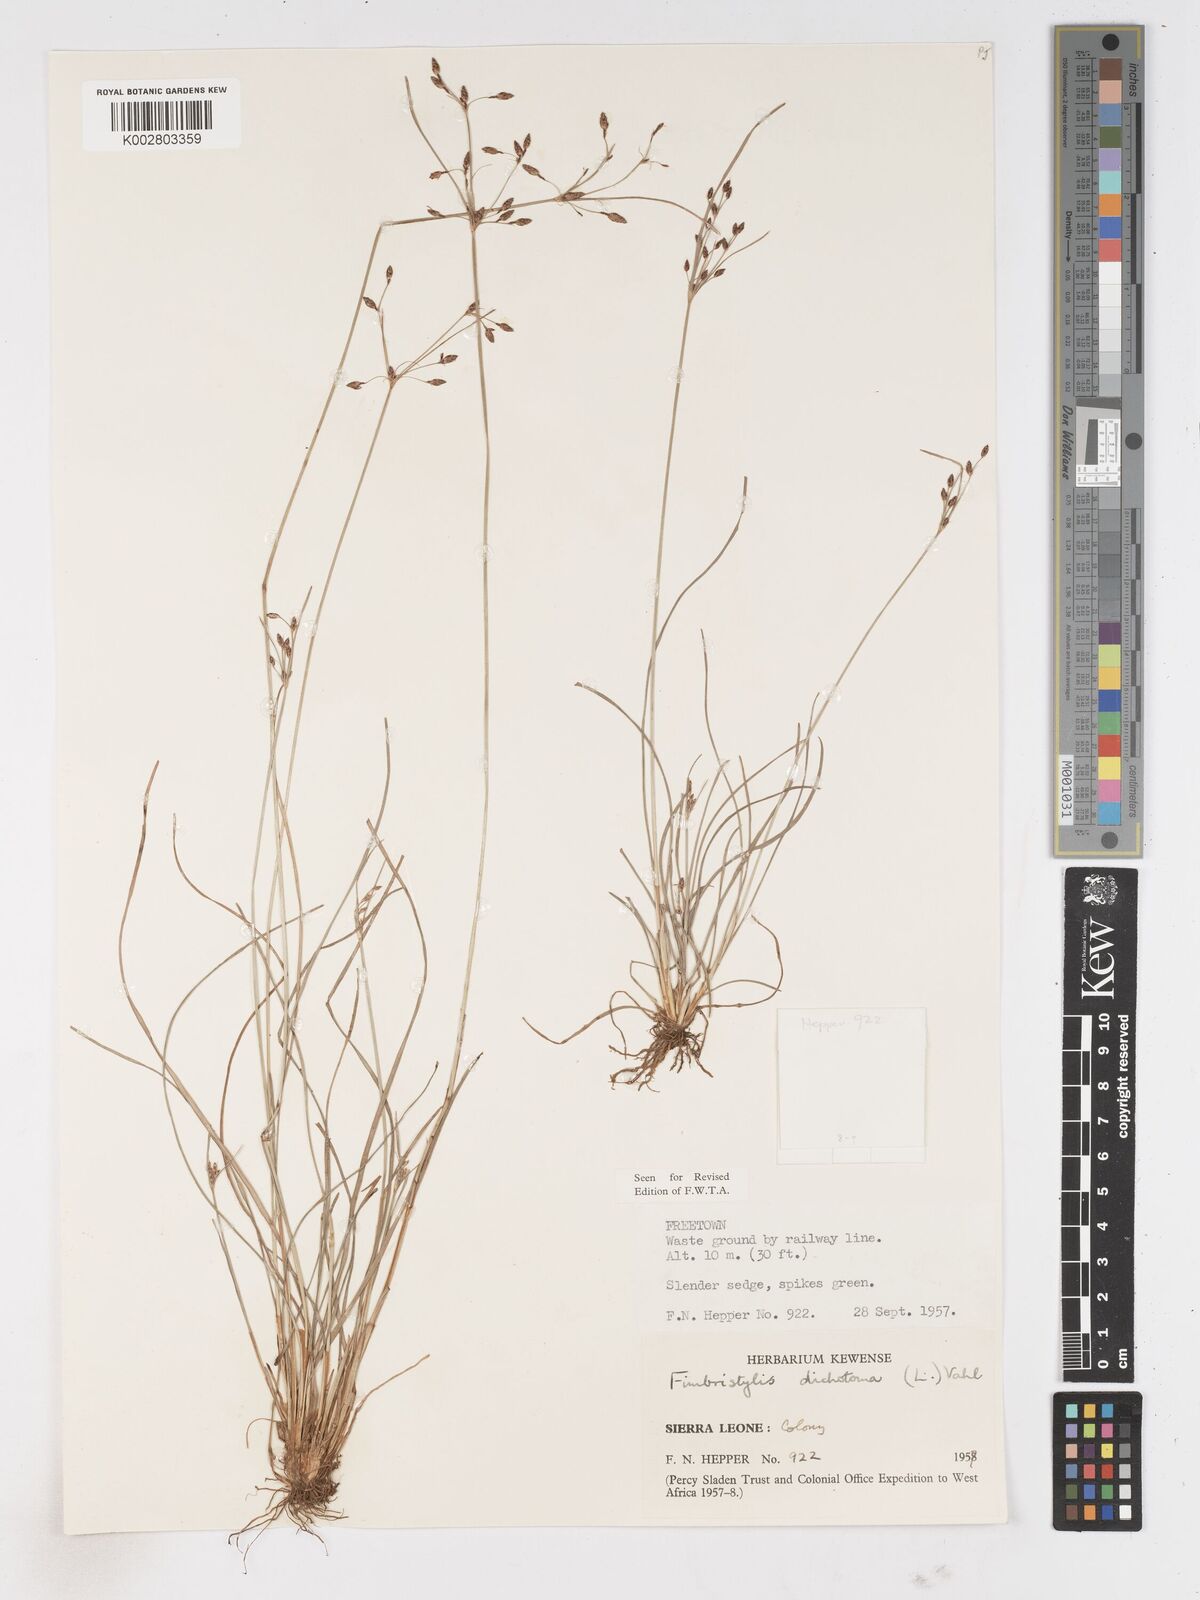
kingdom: Plantae
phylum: Tracheophyta
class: Liliopsida
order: Poales
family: Cyperaceae
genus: Fimbristylis
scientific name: Fimbristylis dichotoma
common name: Forked fimbry
